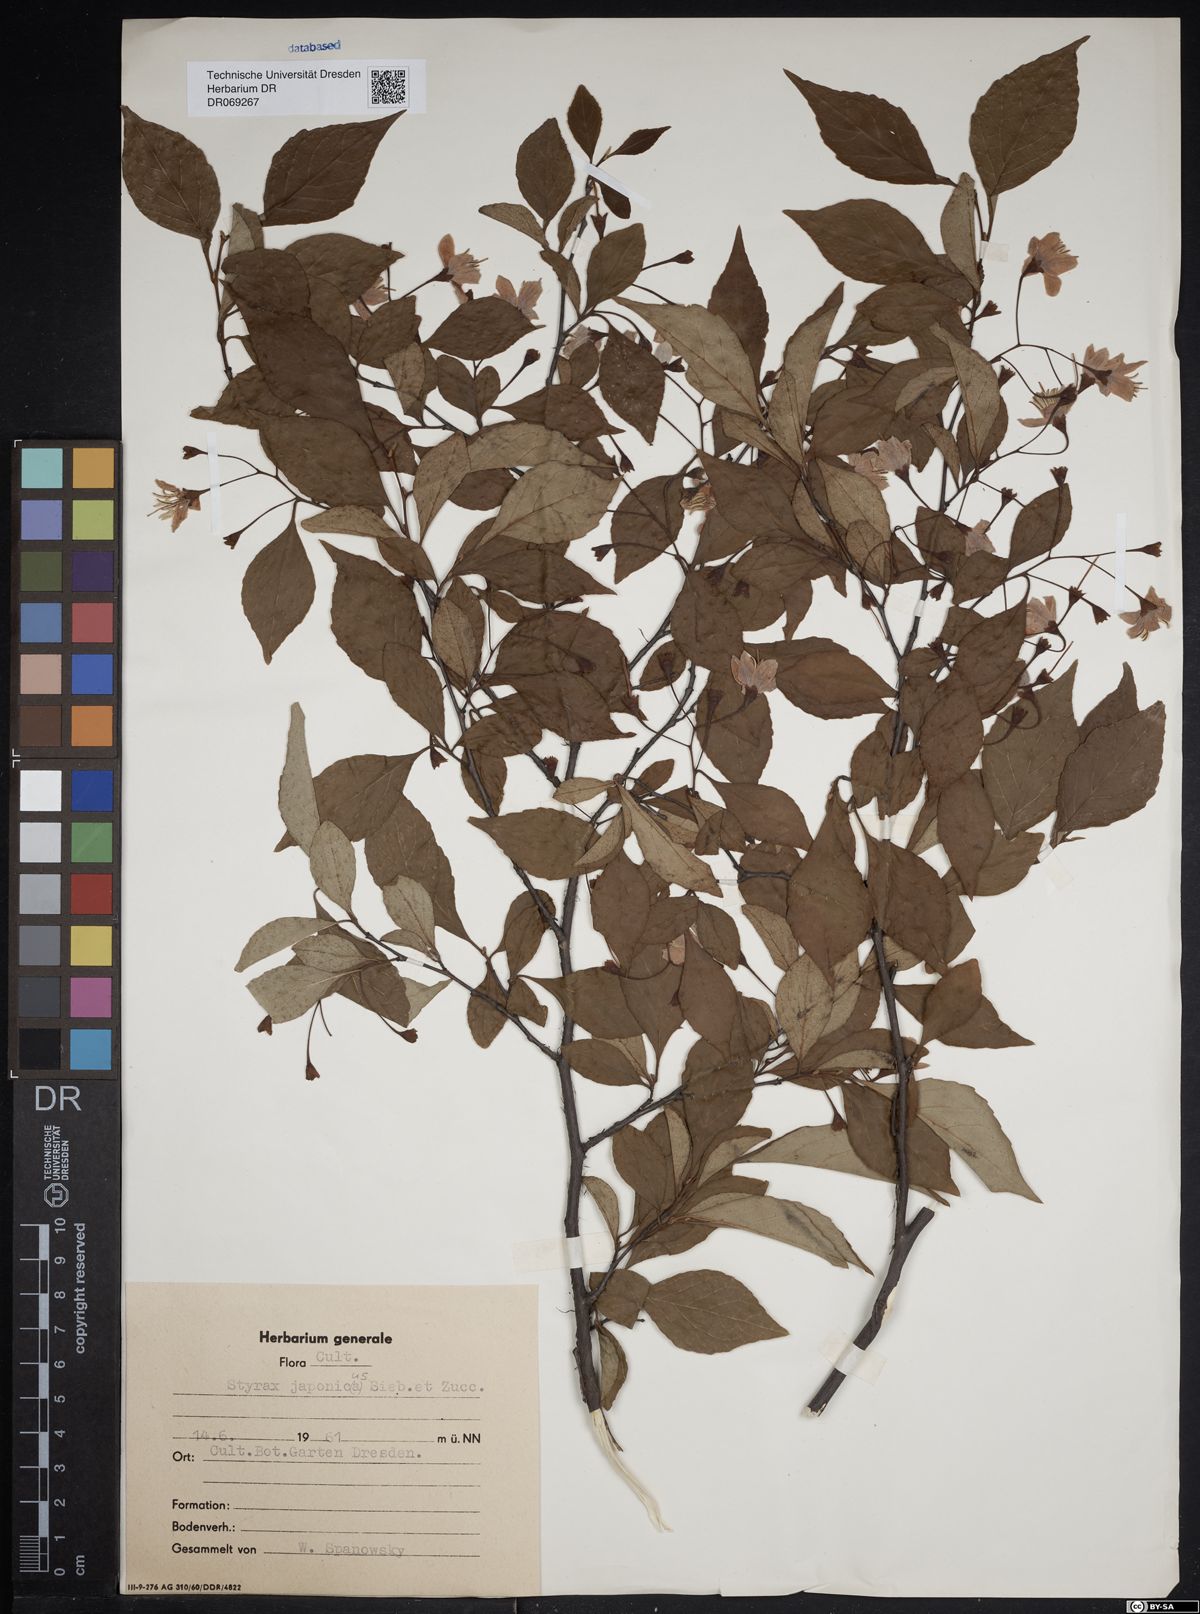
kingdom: Plantae
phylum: Tracheophyta
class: Magnoliopsida
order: Ericales
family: Styracaceae
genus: Styrax
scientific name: Styrax japonicus
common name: Japanese snowbell
